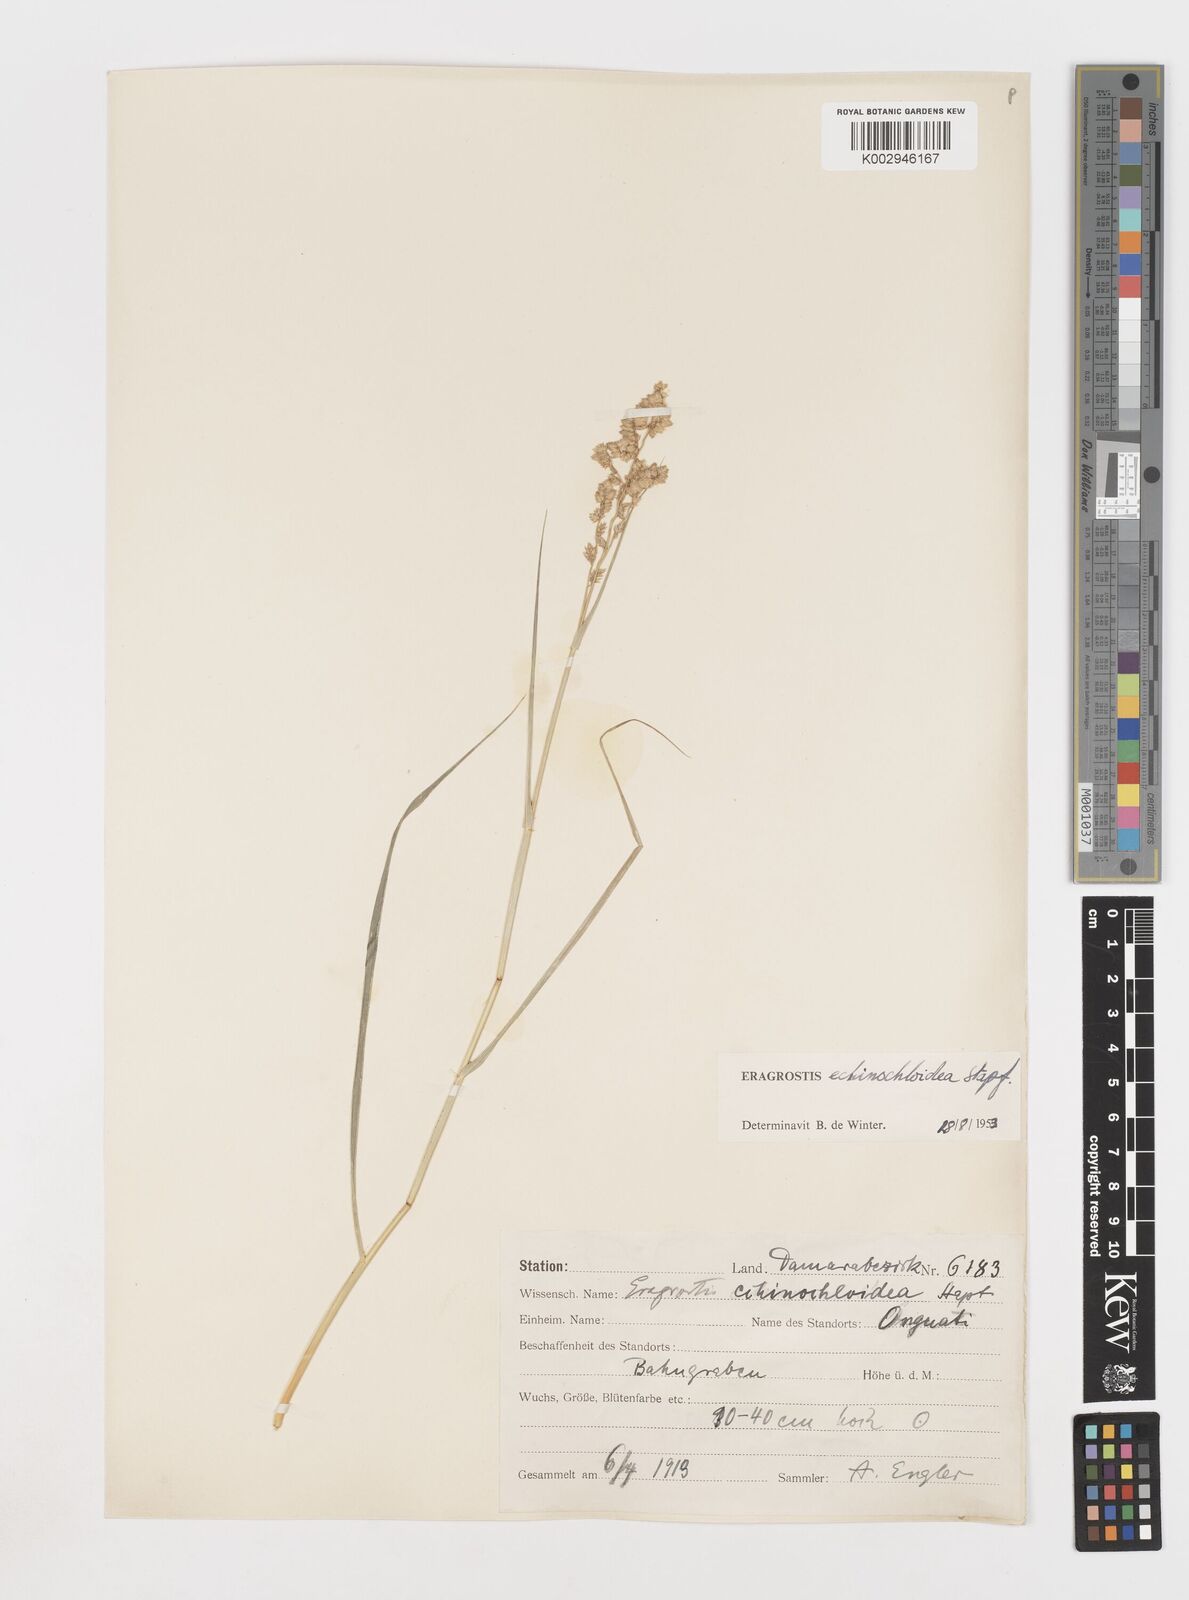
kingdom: Plantae
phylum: Tracheophyta
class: Liliopsida
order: Poales
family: Poaceae
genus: Eragrostis
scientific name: Eragrostis echinochloidea
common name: African lovegrass
